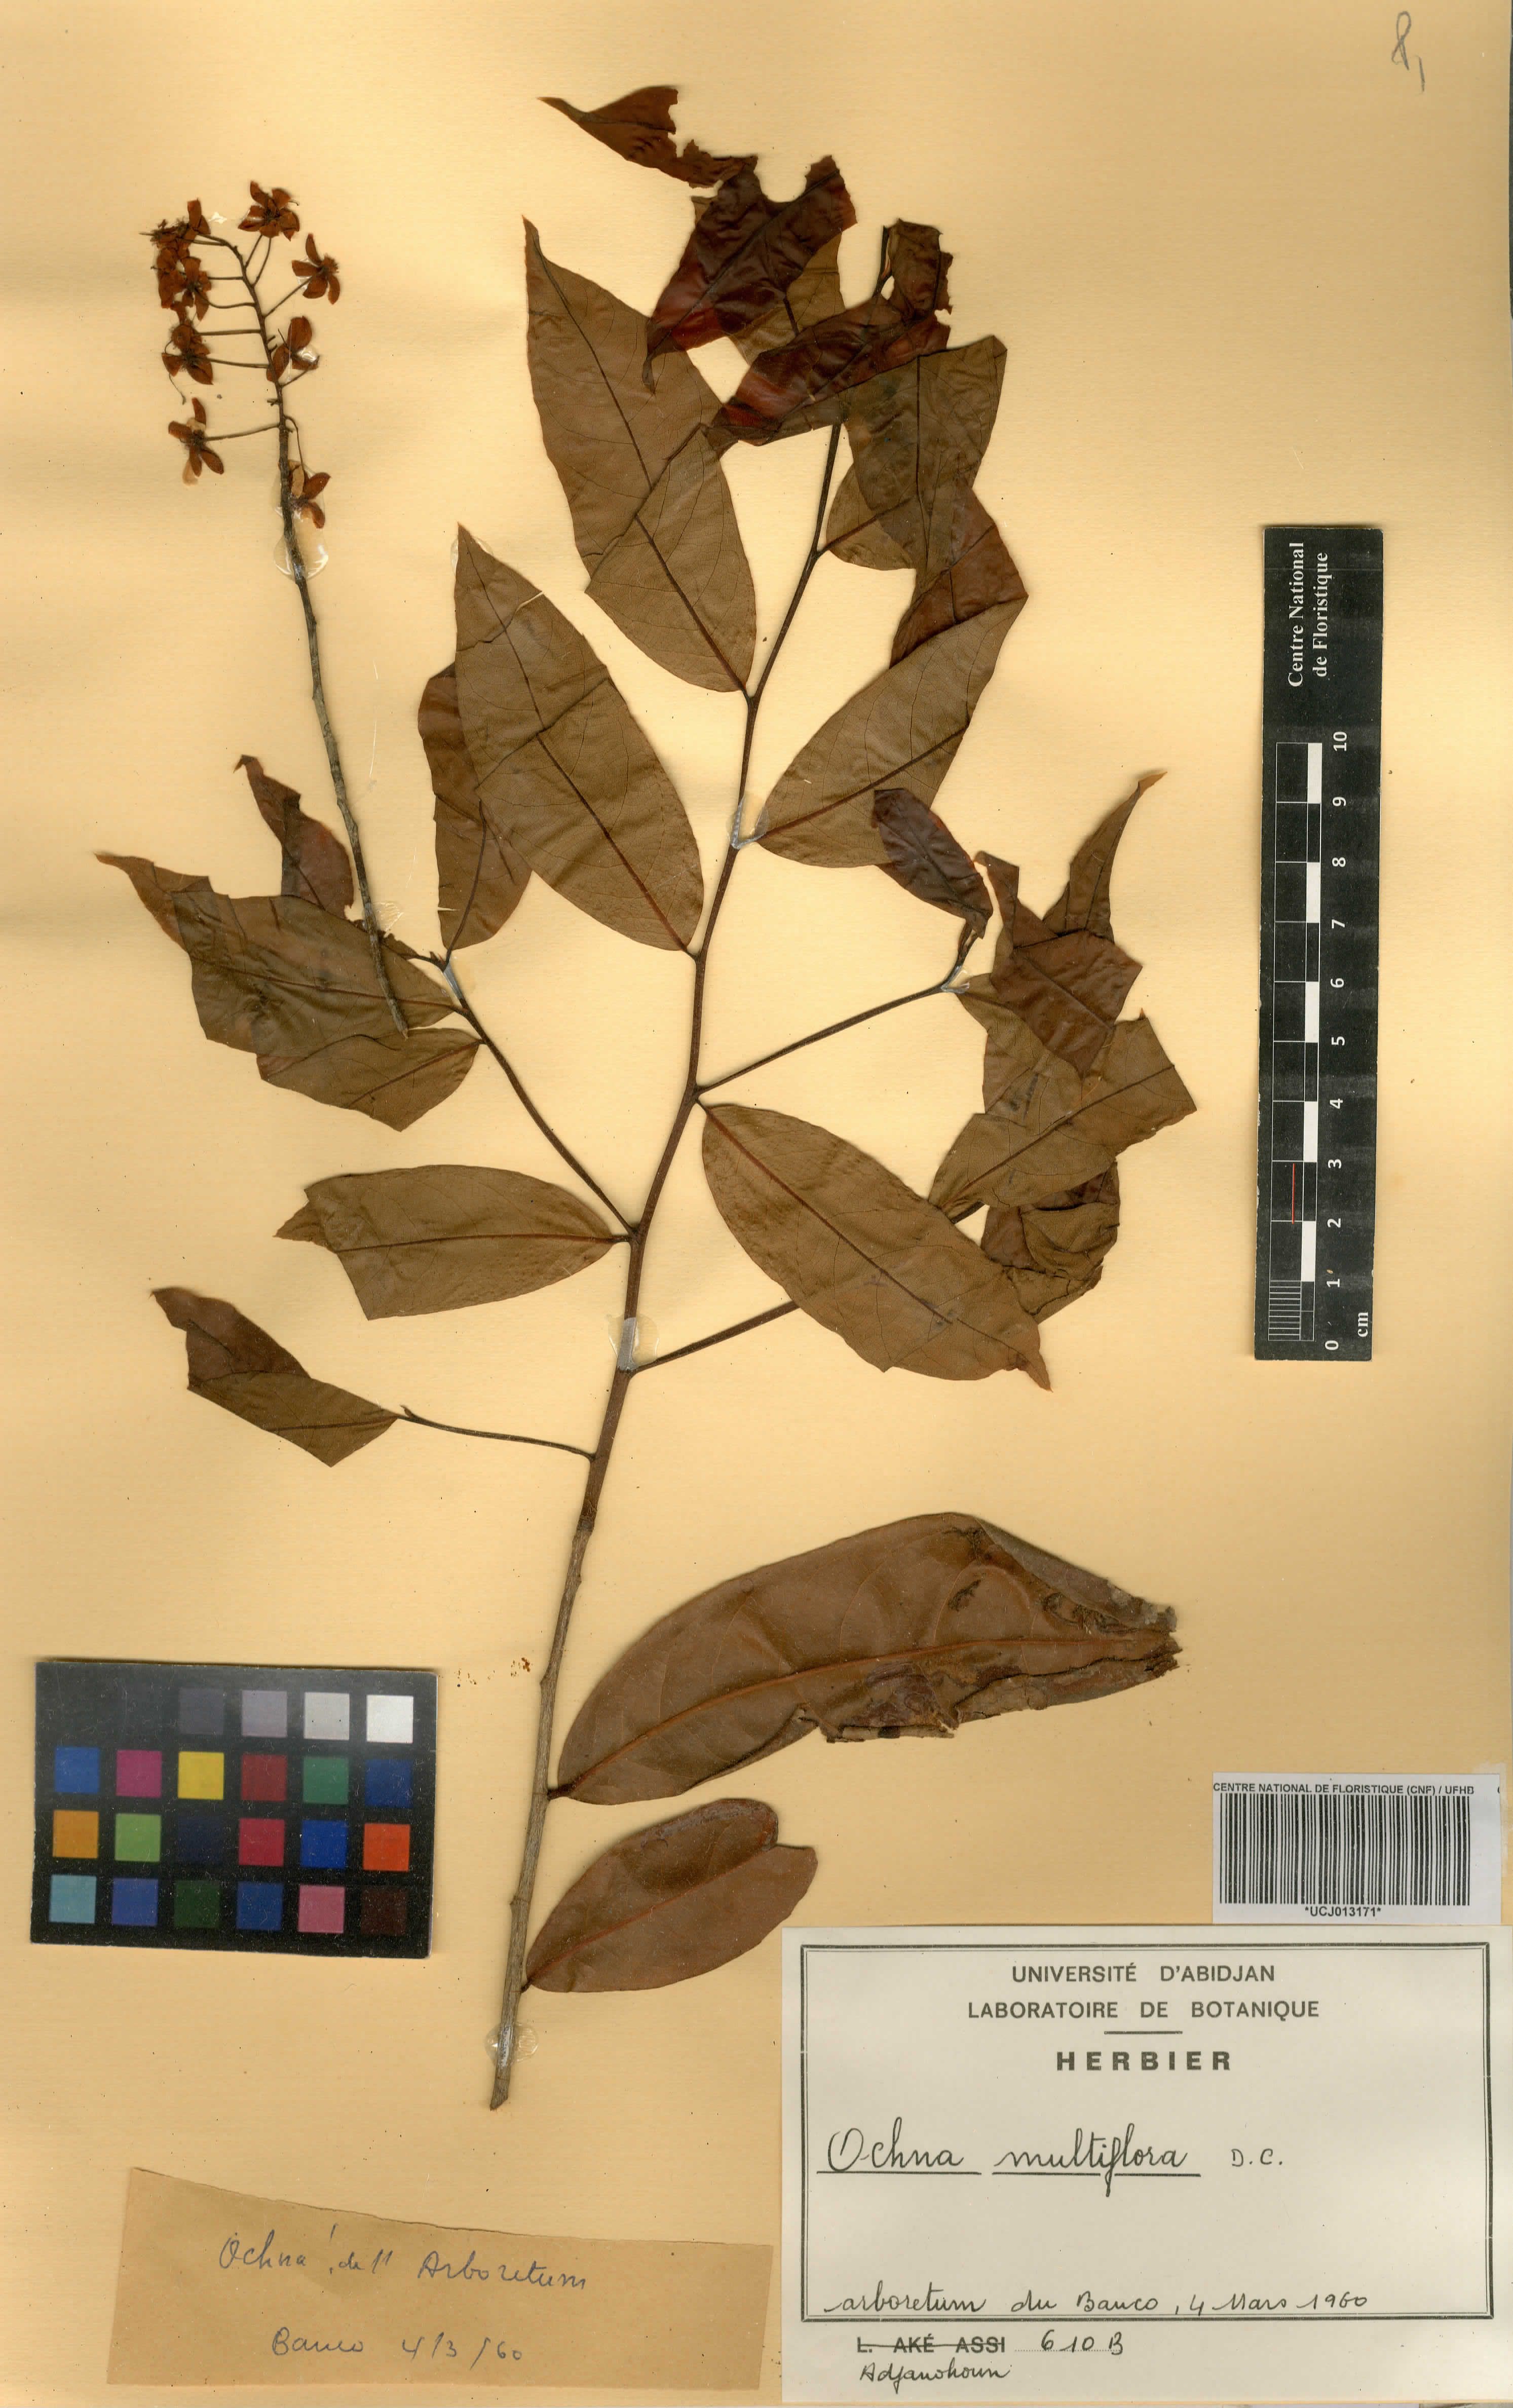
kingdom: Plantae
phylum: Tracheophyta
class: Magnoliopsida
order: Malpighiales
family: Ochnaceae
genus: Ochna
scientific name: Ochna multiflora
